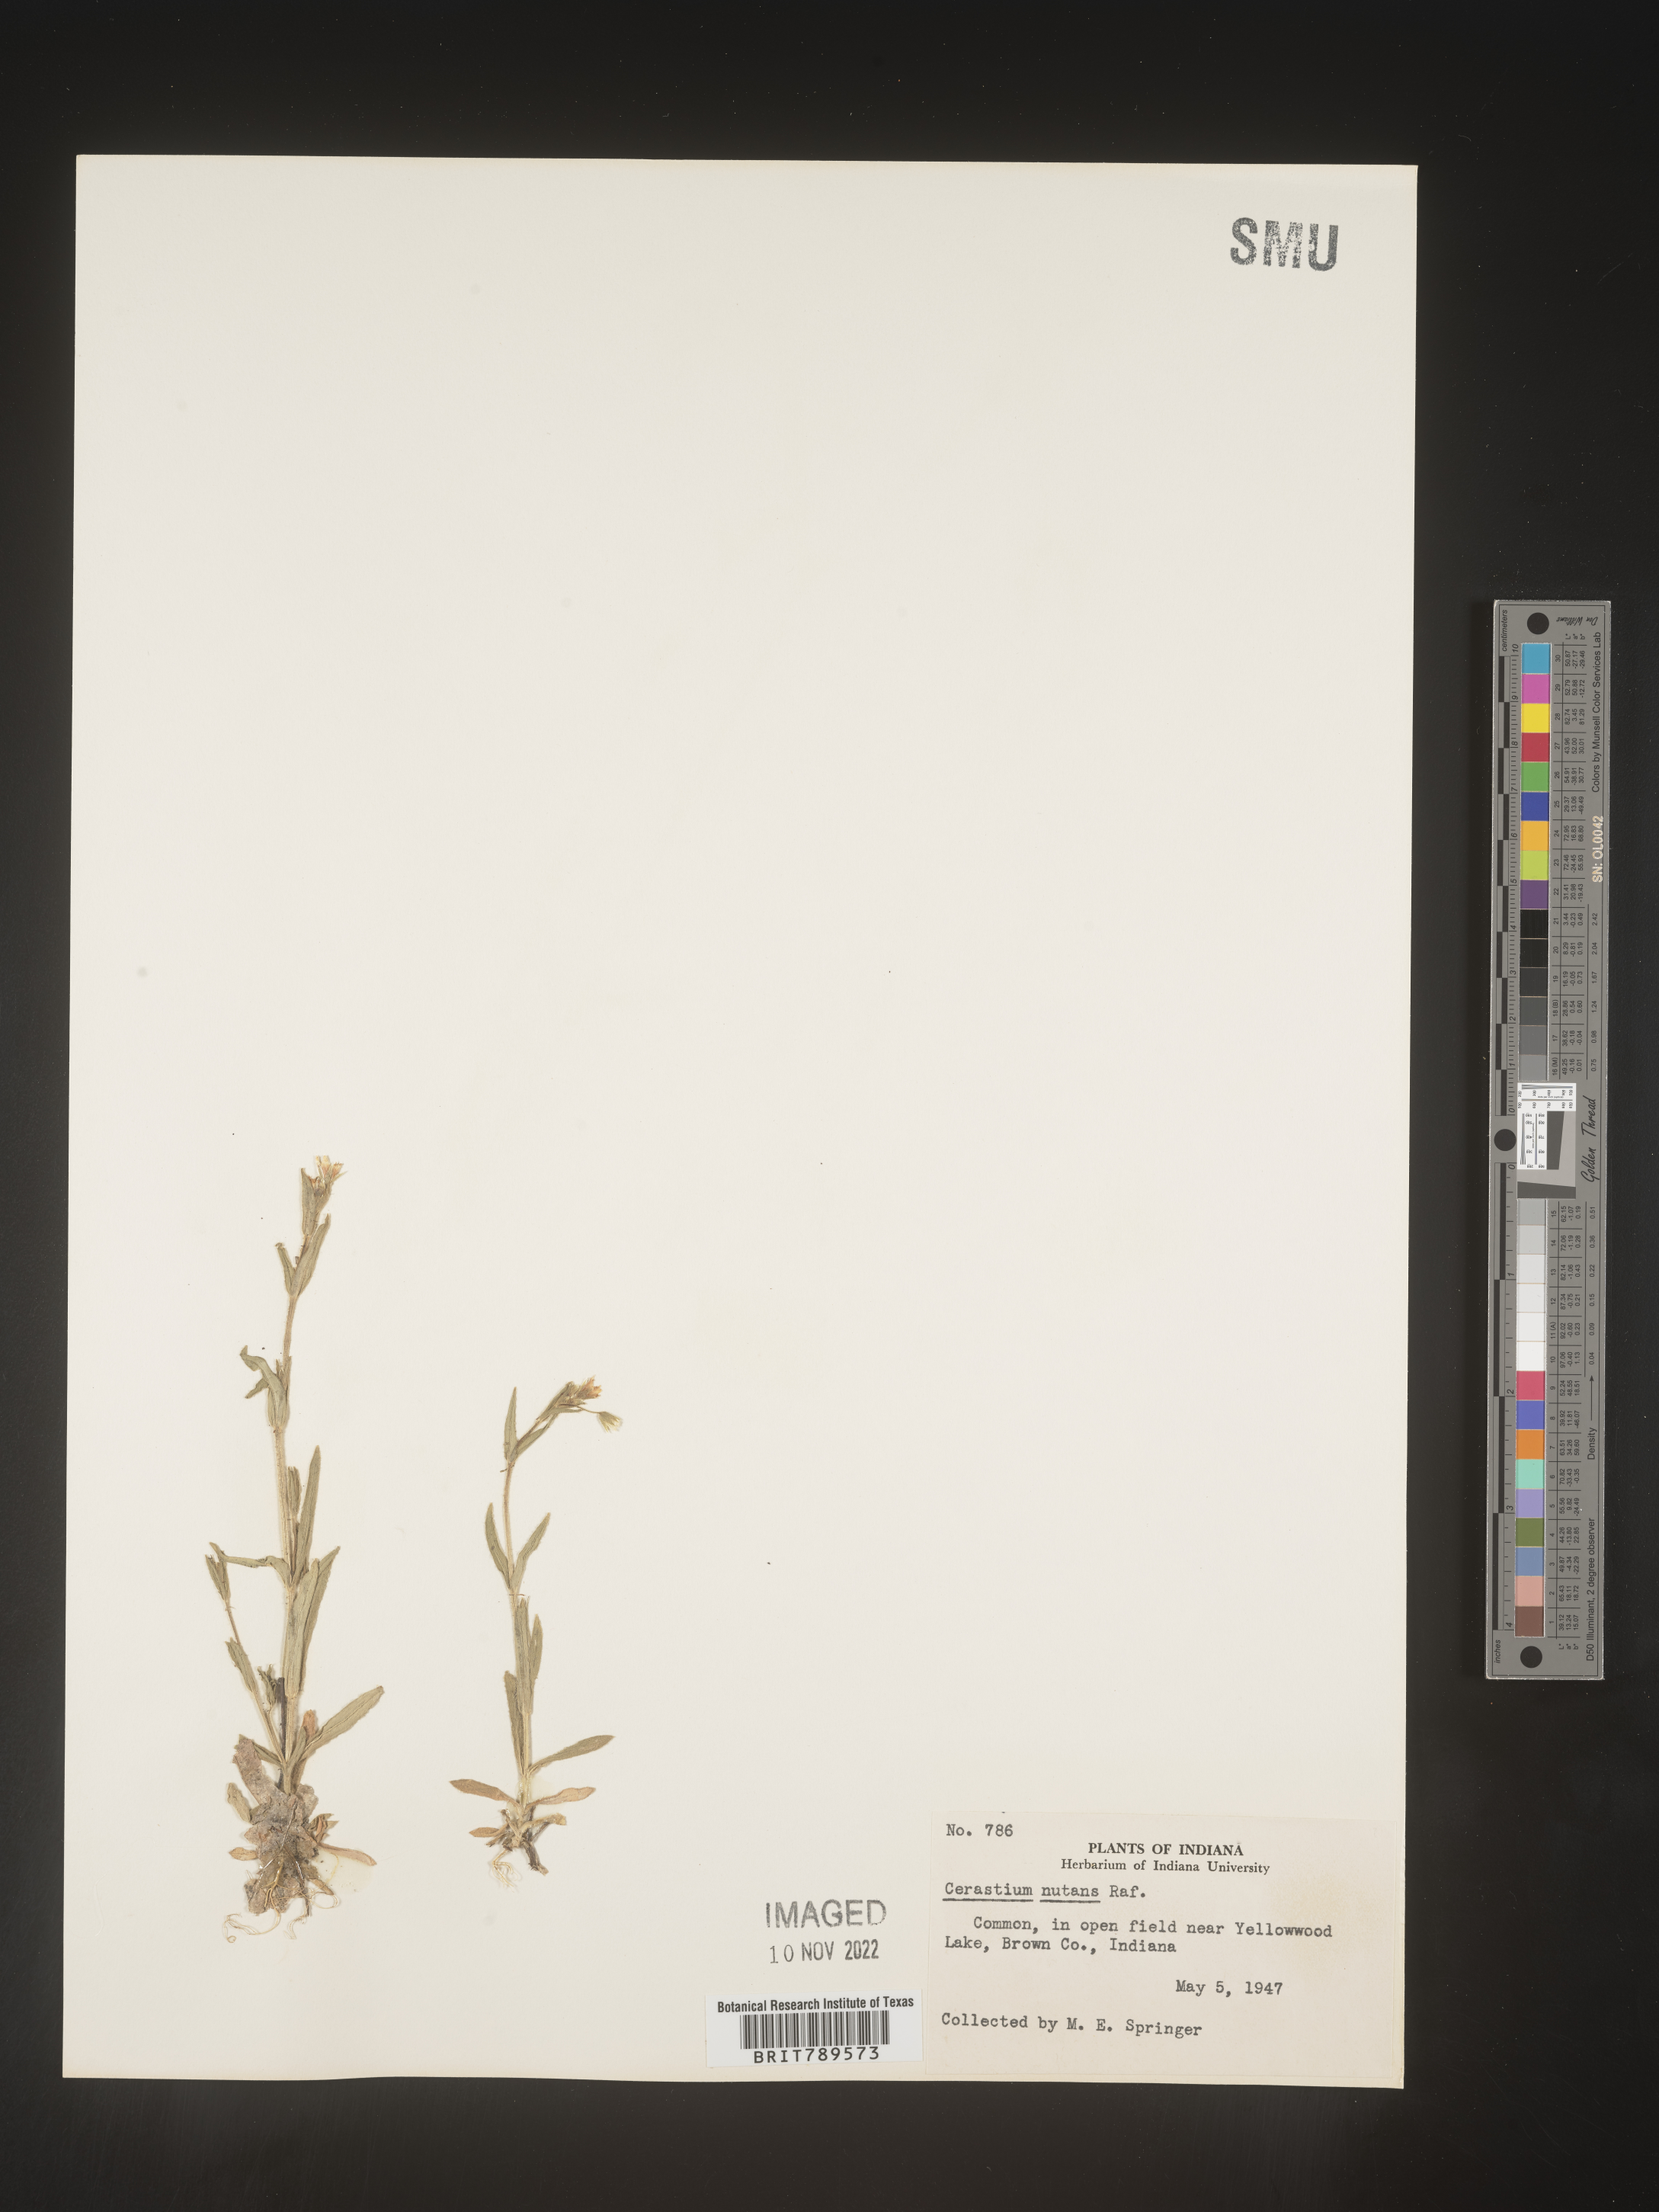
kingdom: Plantae
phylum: Tracheophyta
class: Magnoliopsida
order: Caryophyllales
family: Caryophyllaceae
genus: Cerastium
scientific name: Cerastium nutans
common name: Long-stalked chickweed
